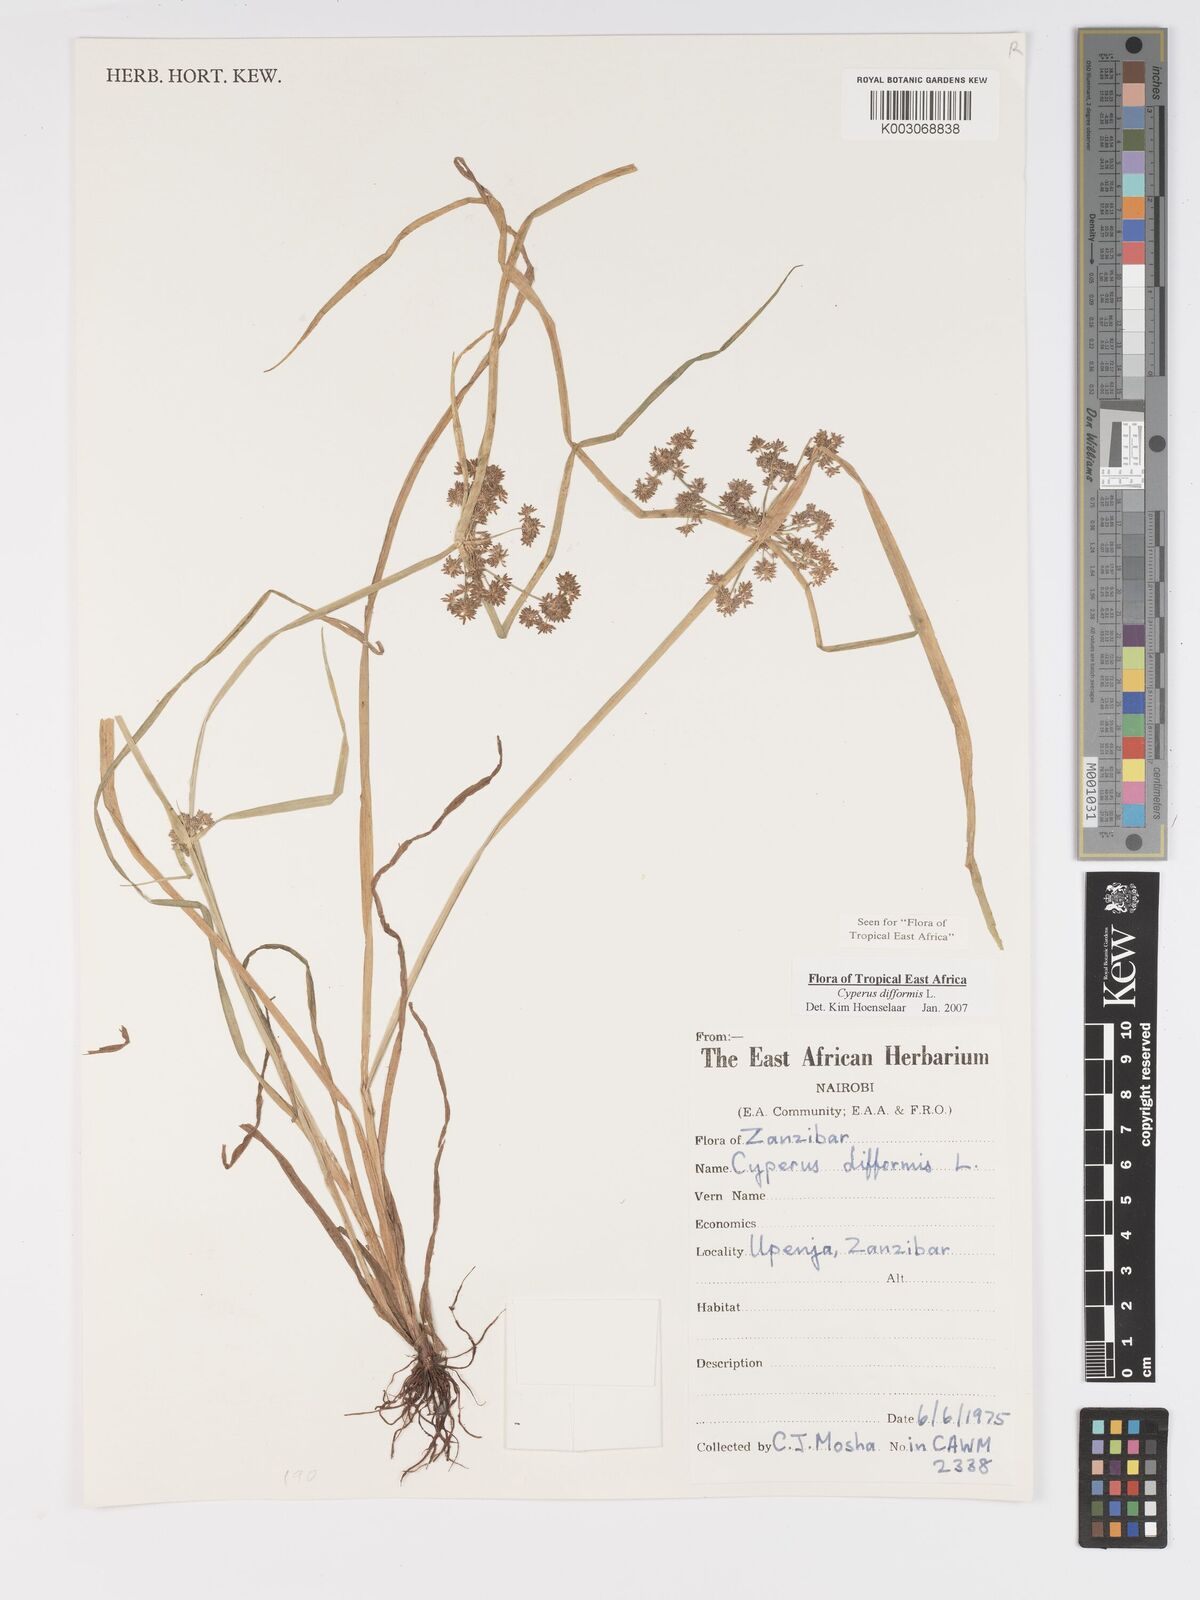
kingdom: Plantae
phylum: Tracheophyta
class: Liliopsida
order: Poales
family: Cyperaceae
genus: Cyperus
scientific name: Cyperus difformis
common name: Variable flatsedge
